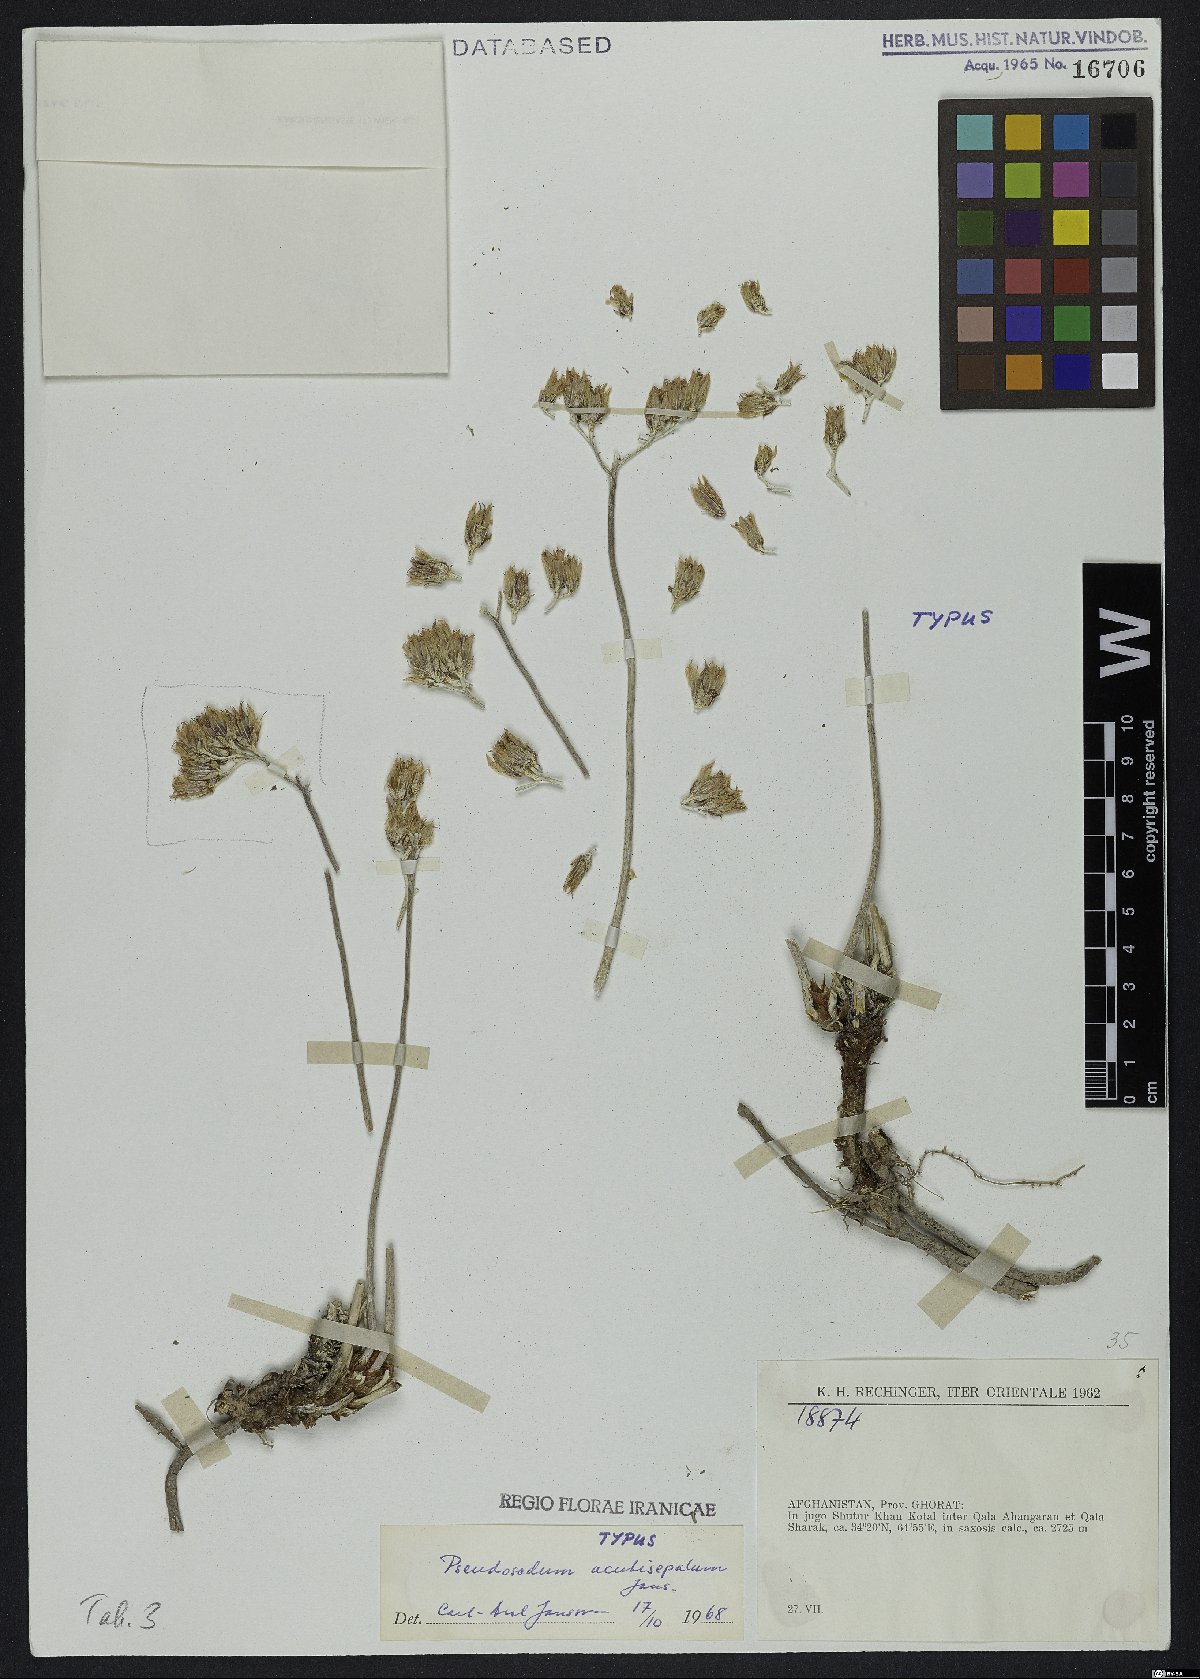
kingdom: Plantae
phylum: Tracheophyta
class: Magnoliopsida
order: Saxifragales
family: Crassulaceae
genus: Pseudosedum
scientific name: Pseudosedum acutisepalum
